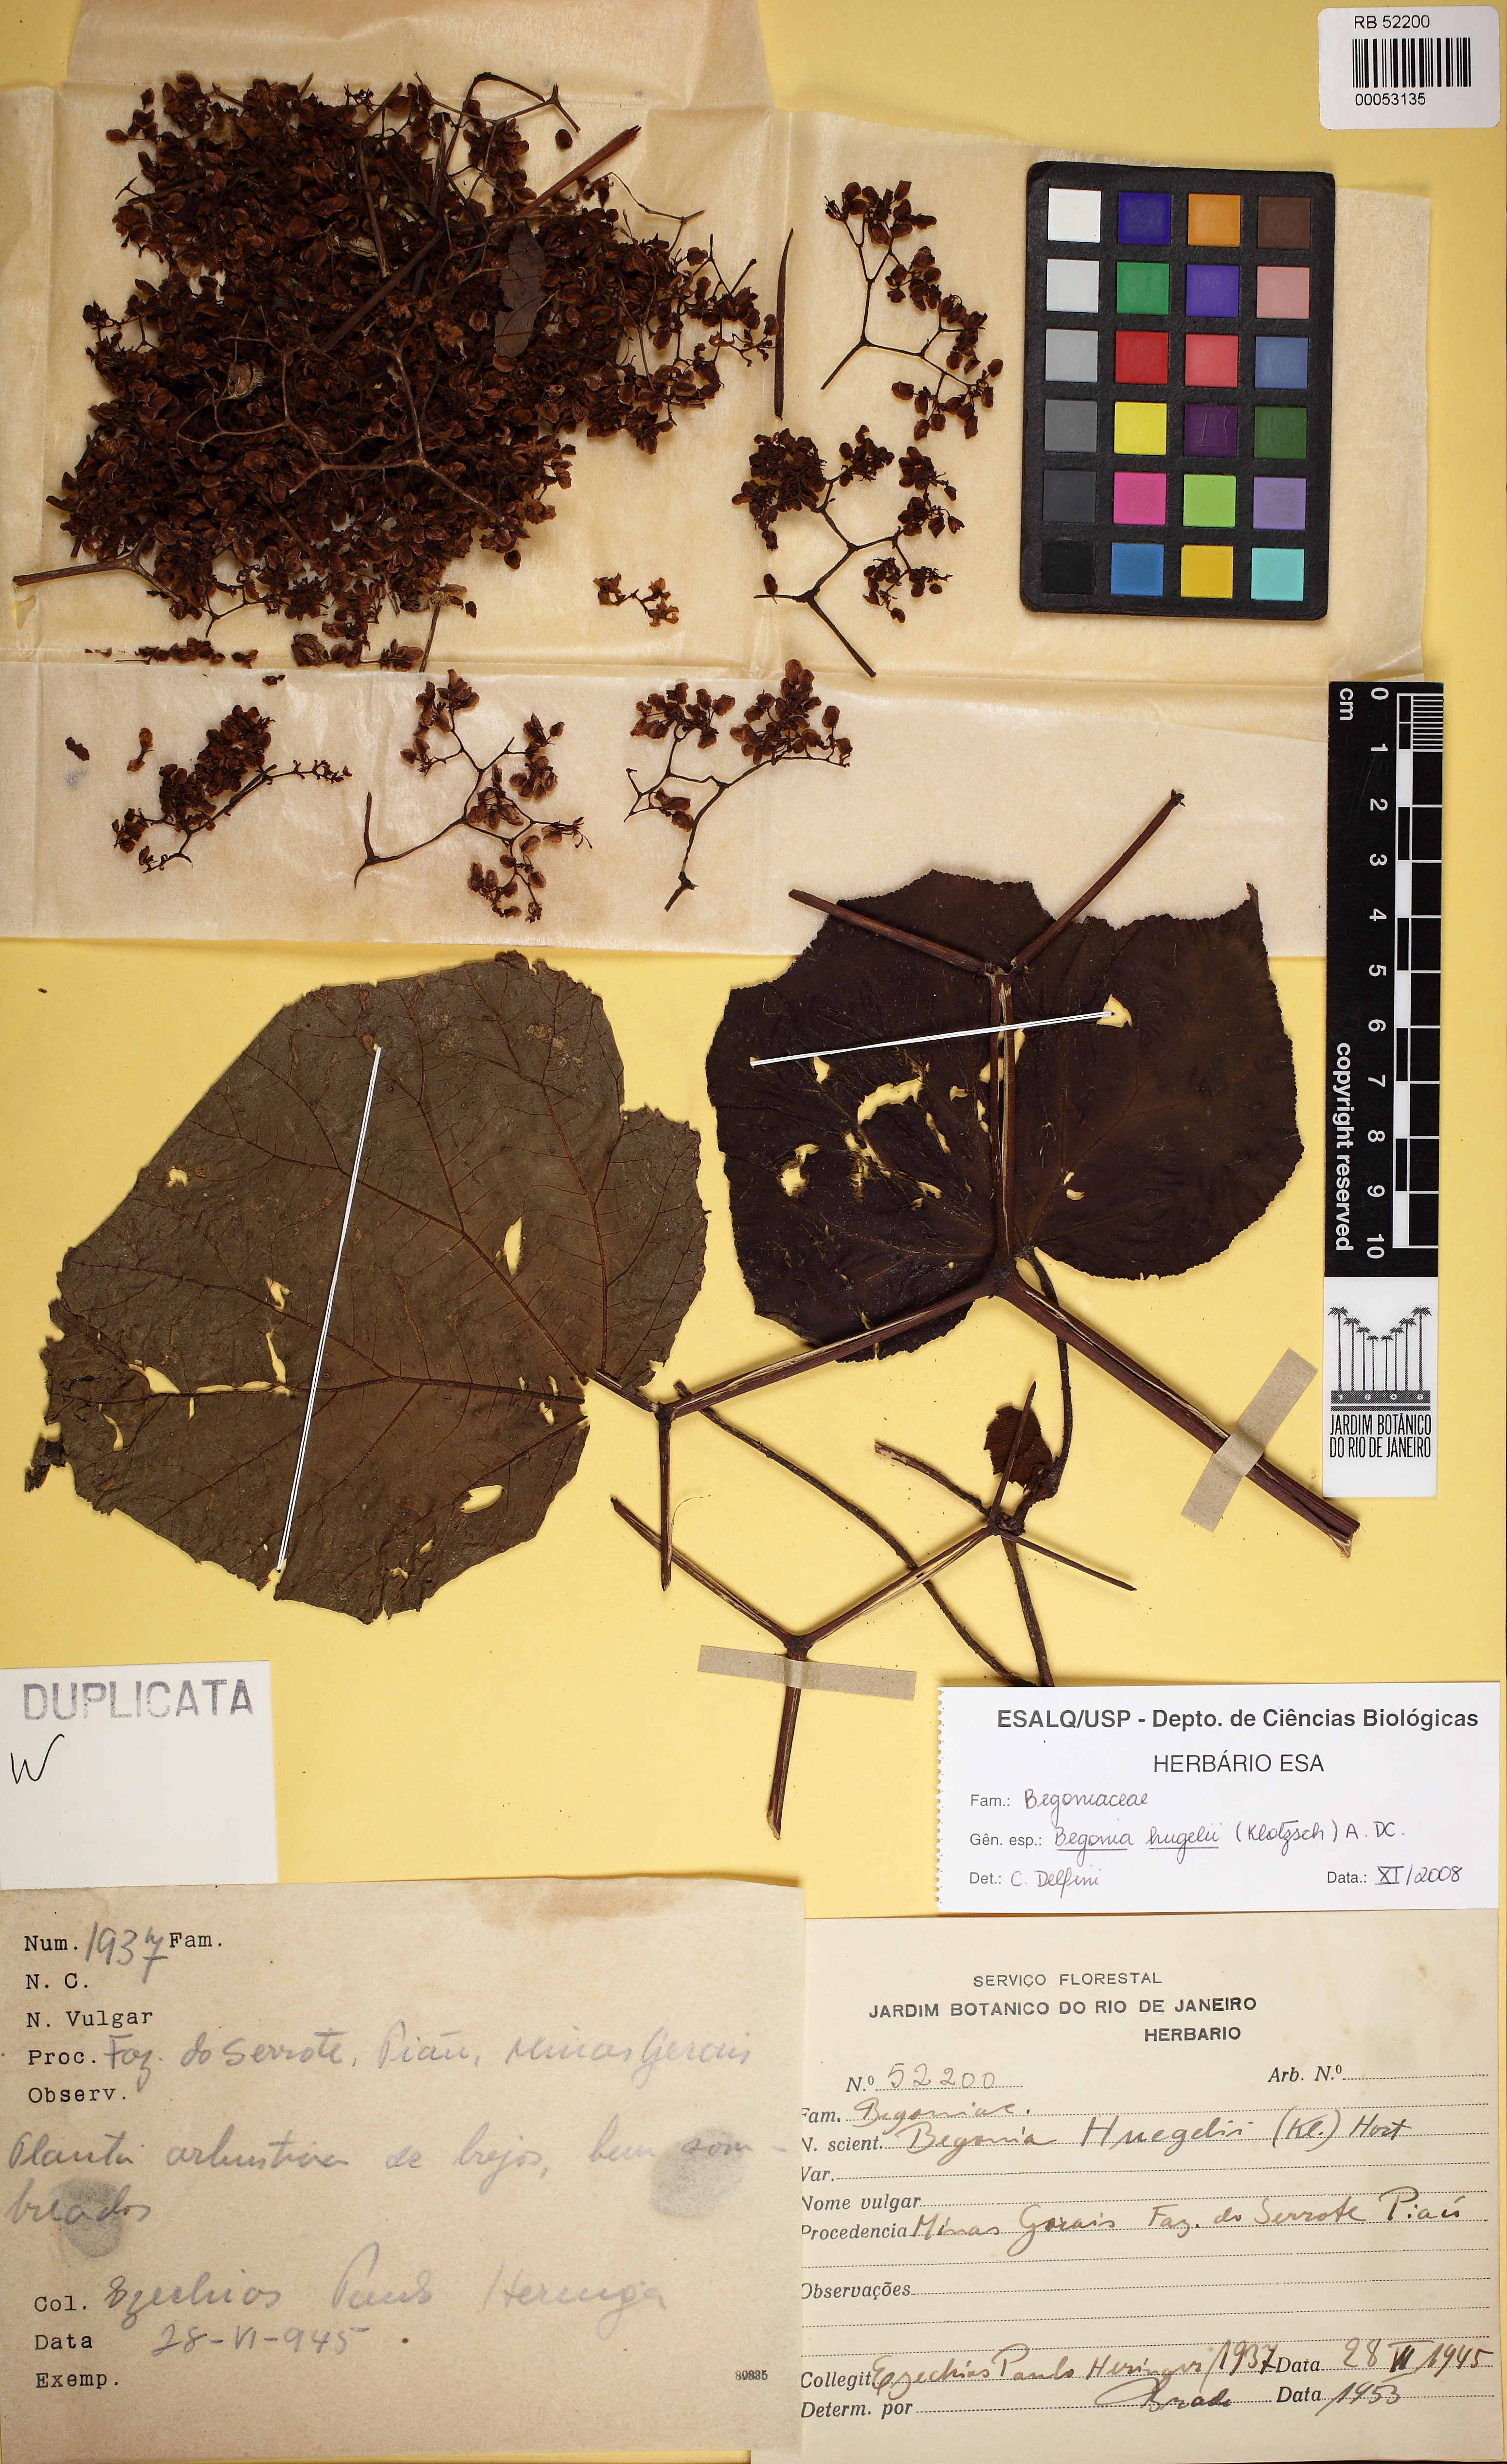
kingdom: Plantae
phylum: Tracheophyta
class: Magnoliopsida
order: Cucurbitales
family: Begoniaceae
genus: Begonia
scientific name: Begonia huegelii
